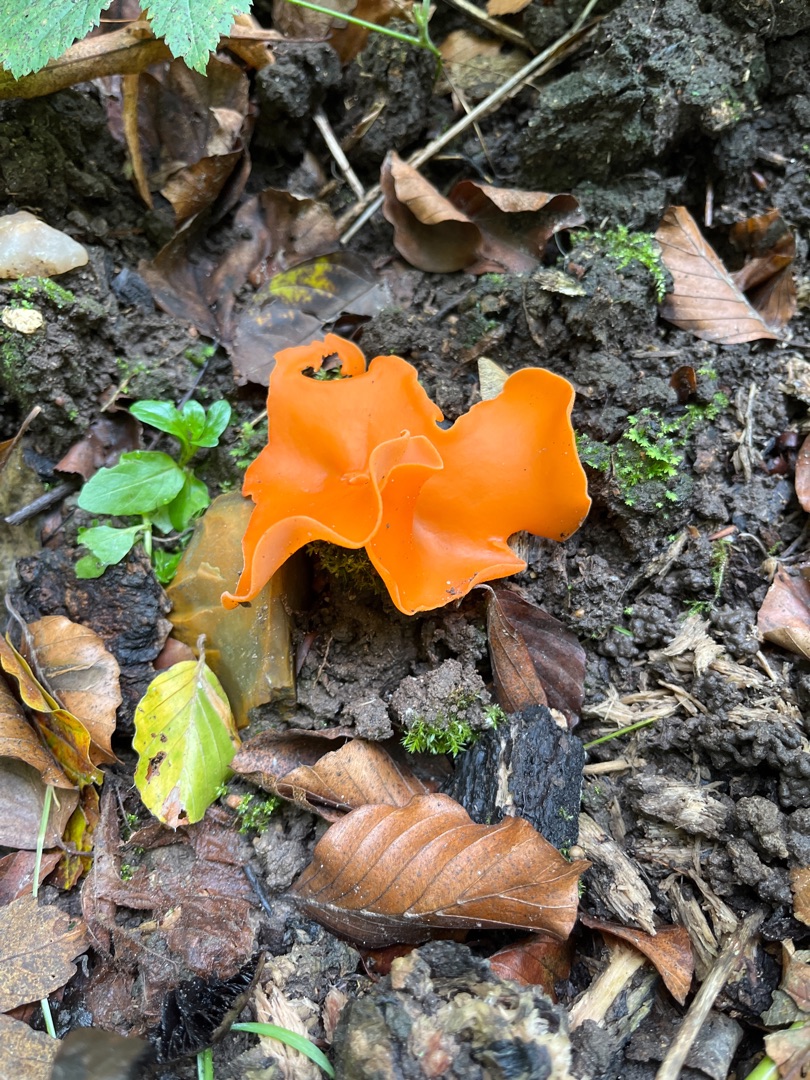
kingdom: Fungi
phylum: Ascomycota
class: Pezizomycetes
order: Pezizales
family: Pyronemataceae
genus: Aleuria
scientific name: Aleuria aurantia
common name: Almindelig orangebæger
